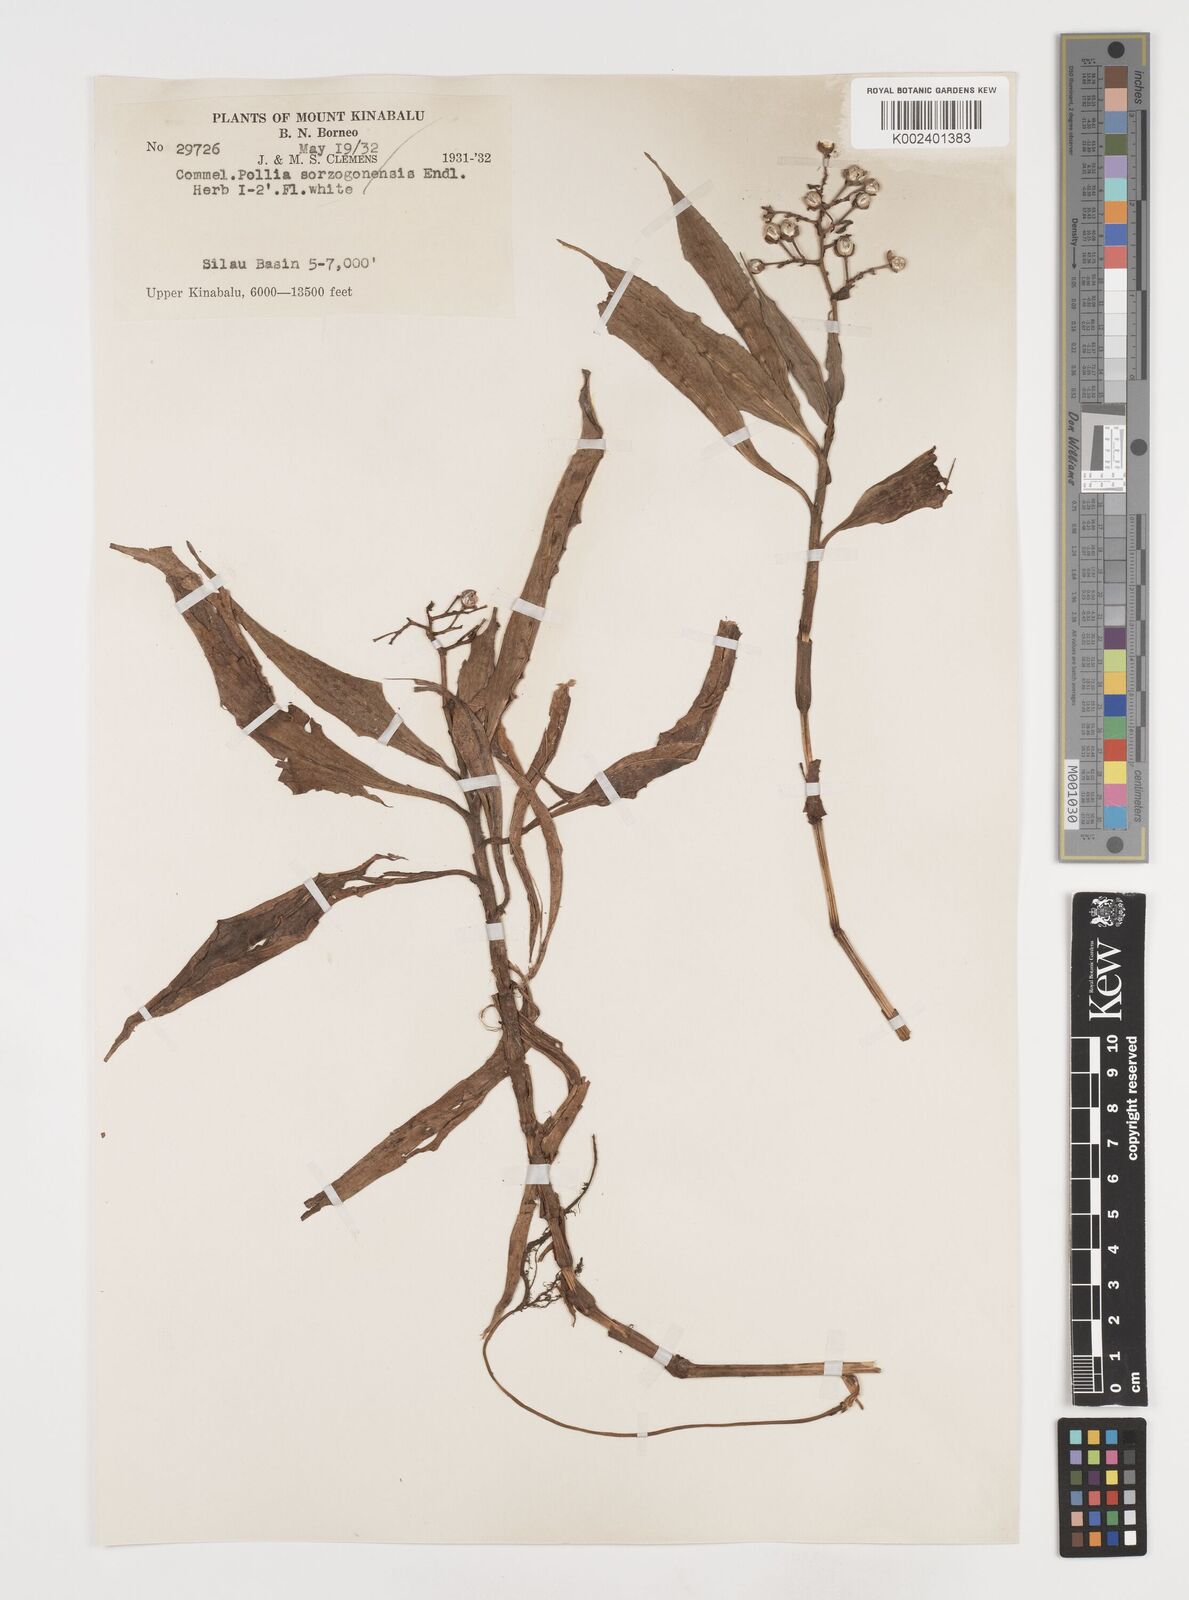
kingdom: Plantae
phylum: Tracheophyta
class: Liliopsida
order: Commelinales
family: Commelinaceae
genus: Pollia
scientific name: Pollia
